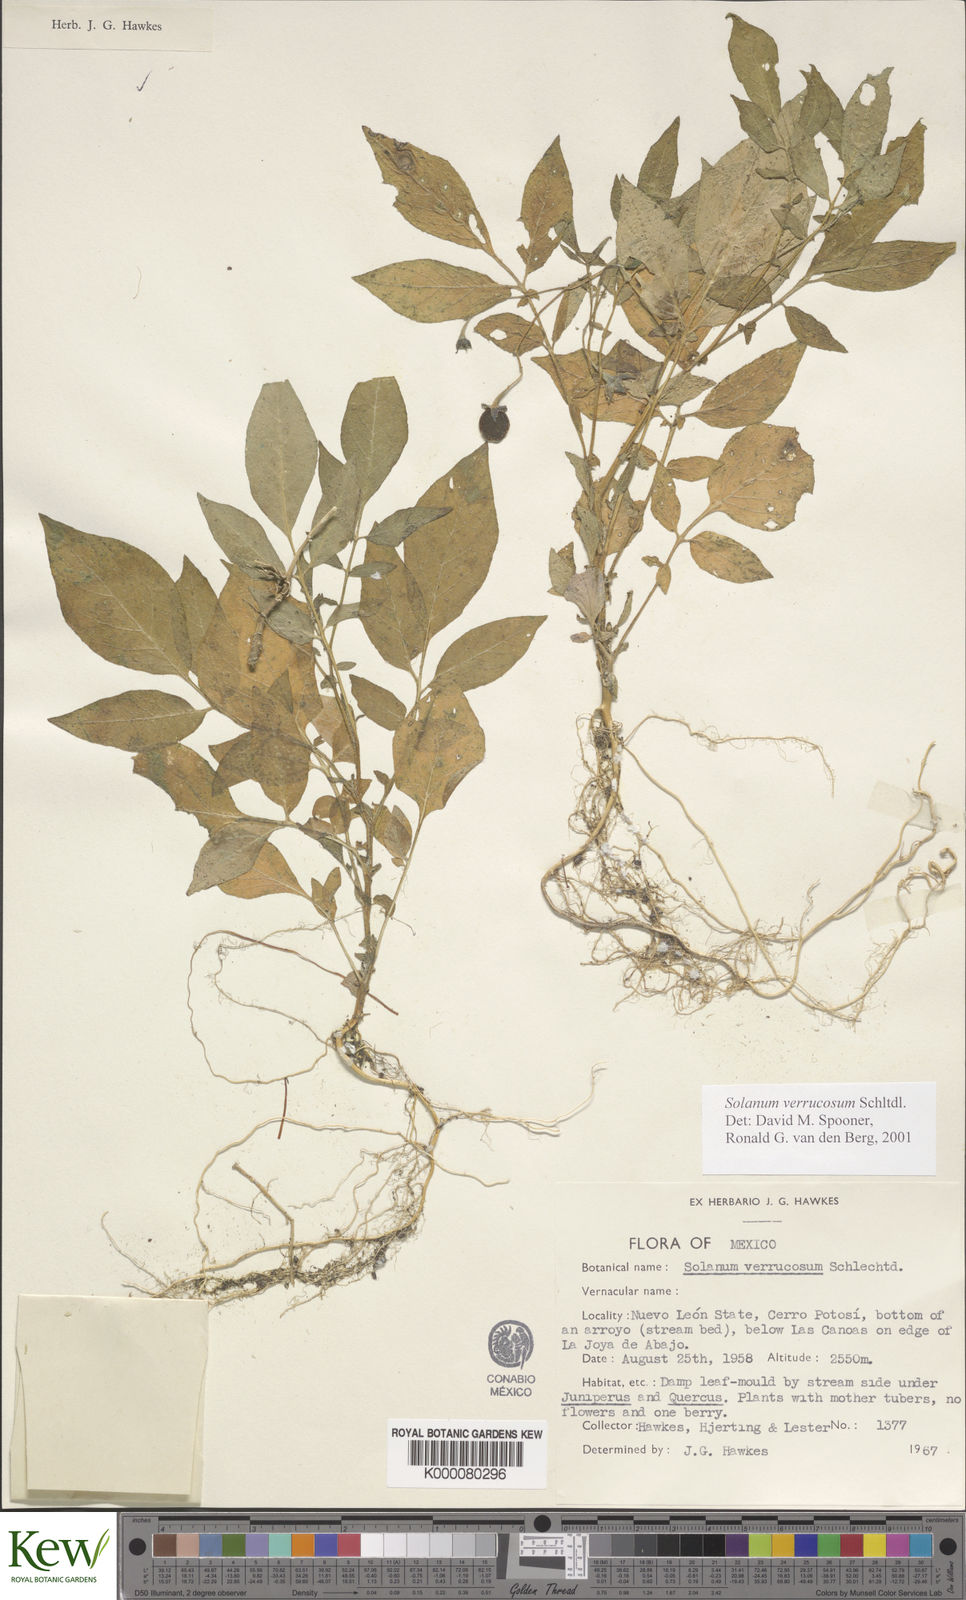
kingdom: Plantae
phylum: Tracheophyta
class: Magnoliopsida
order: Solanales
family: Solanaceae
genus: Solanum
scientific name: Solanum verrucosum
